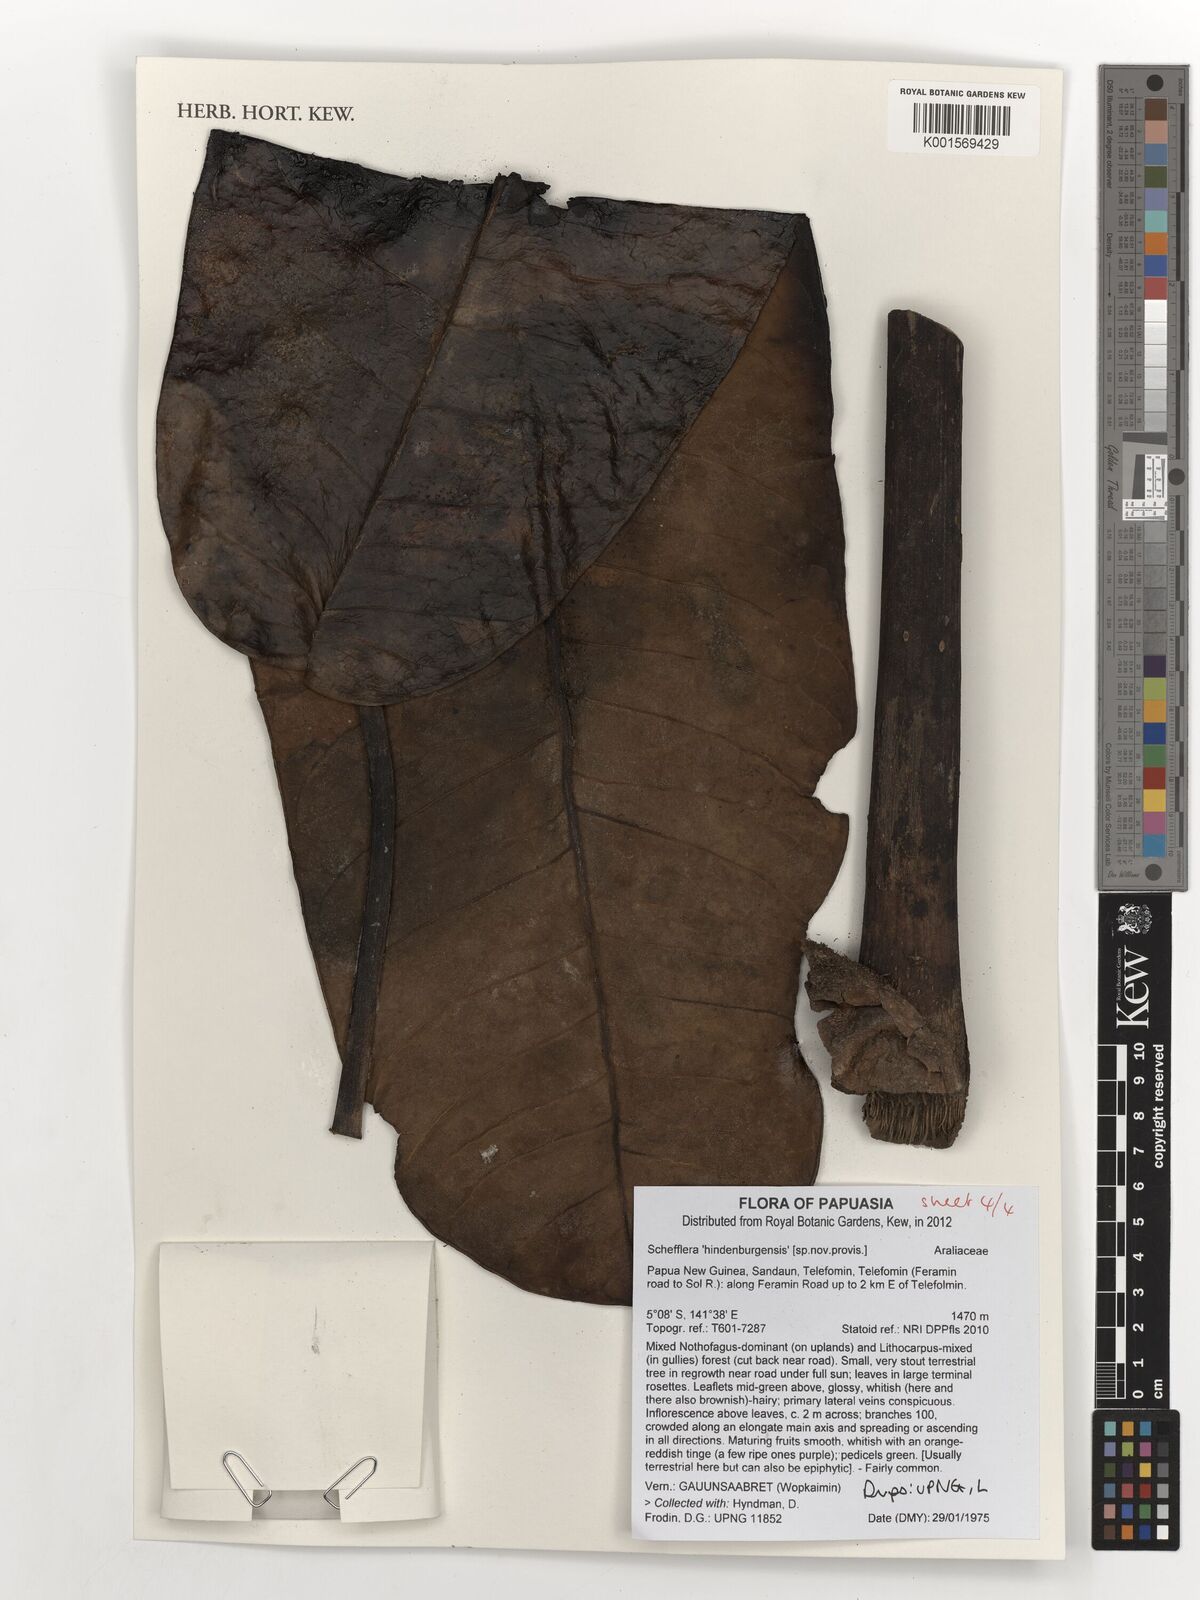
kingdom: Plantae
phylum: Tracheophyta
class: Magnoliopsida
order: Apiales
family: Araliaceae
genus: Schefflera
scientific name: Schefflera
